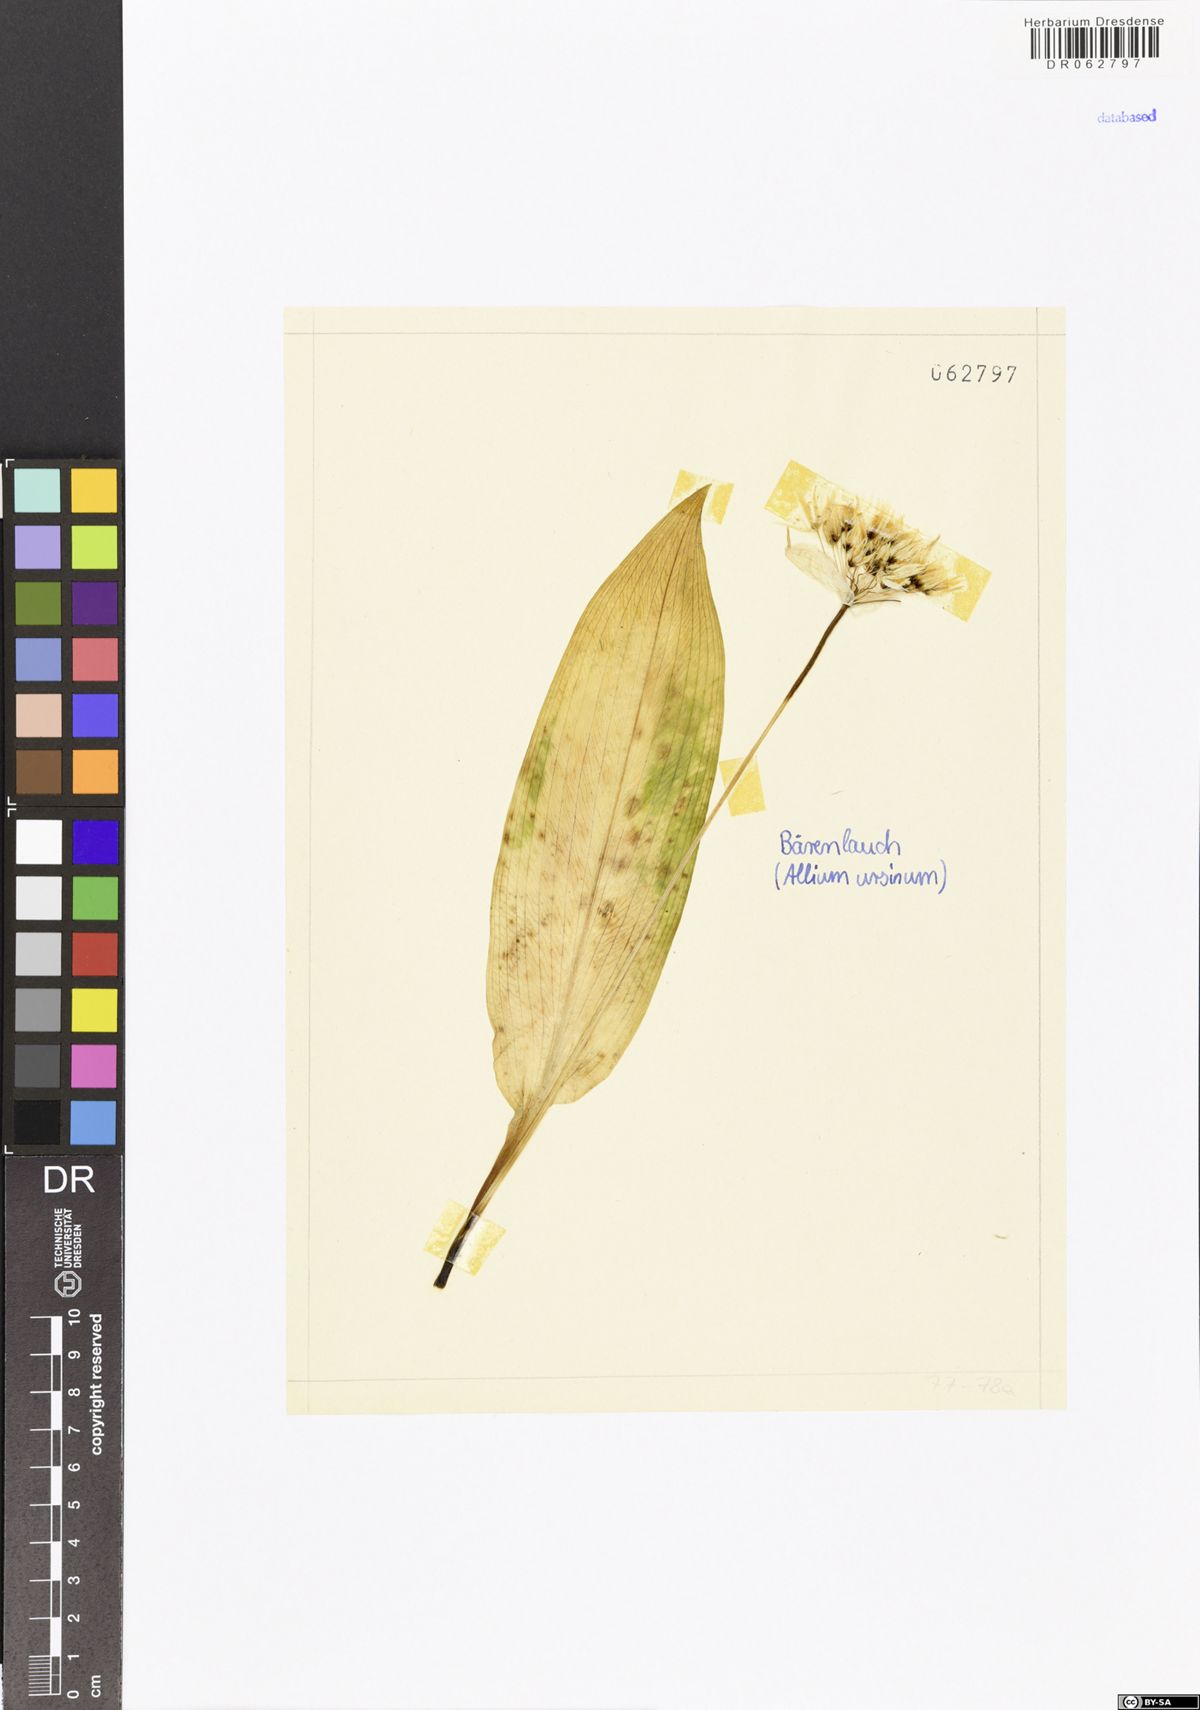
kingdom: Plantae
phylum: Tracheophyta
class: Liliopsida
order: Asparagales
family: Amaryllidaceae
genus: Allium
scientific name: Allium ursinum
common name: Ramsons
